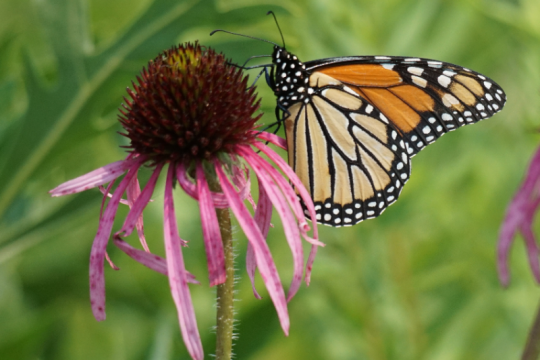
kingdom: Animalia
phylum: Arthropoda
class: Insecta
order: Lepidoptera
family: Nymphalidae
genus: Danaus
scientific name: Danaus plexippus
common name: Monarch
